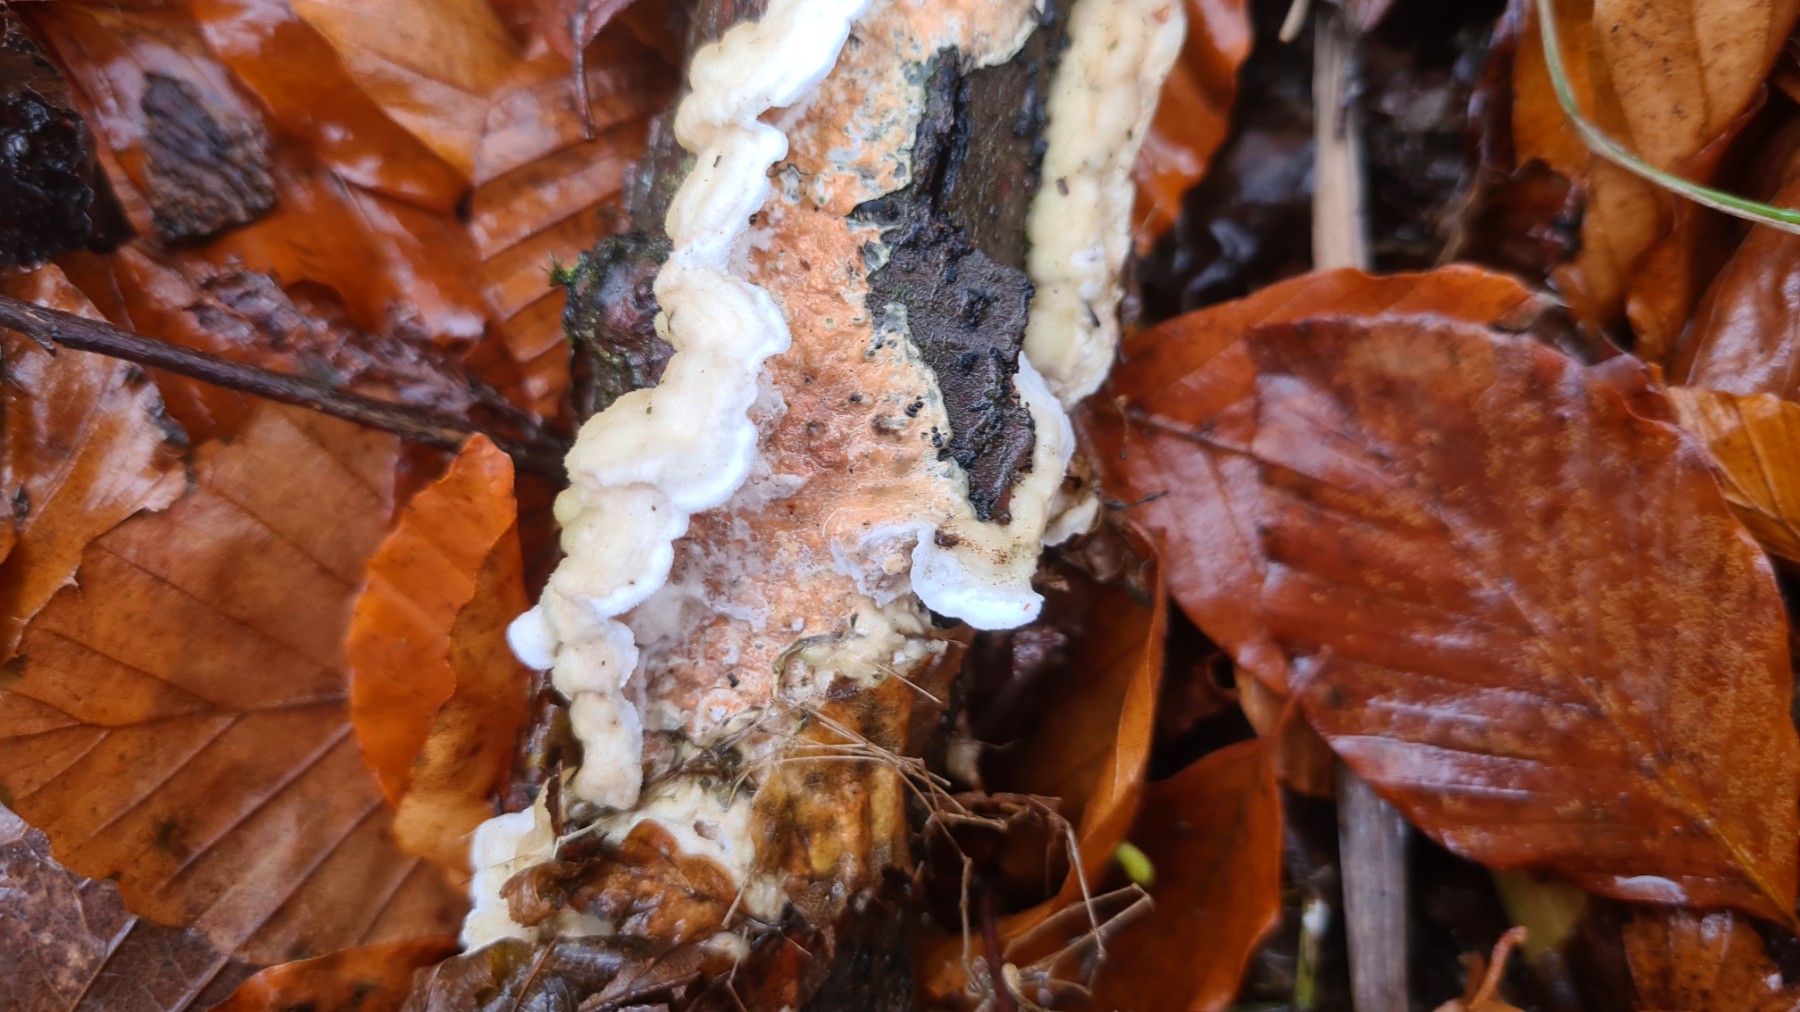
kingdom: Fungi
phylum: Basidiomycota
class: Agaricomycetes
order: Polyporales
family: Irpicaceae
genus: Byssomerulius
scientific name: Byssomerulius corium
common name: læder-åresvamp
